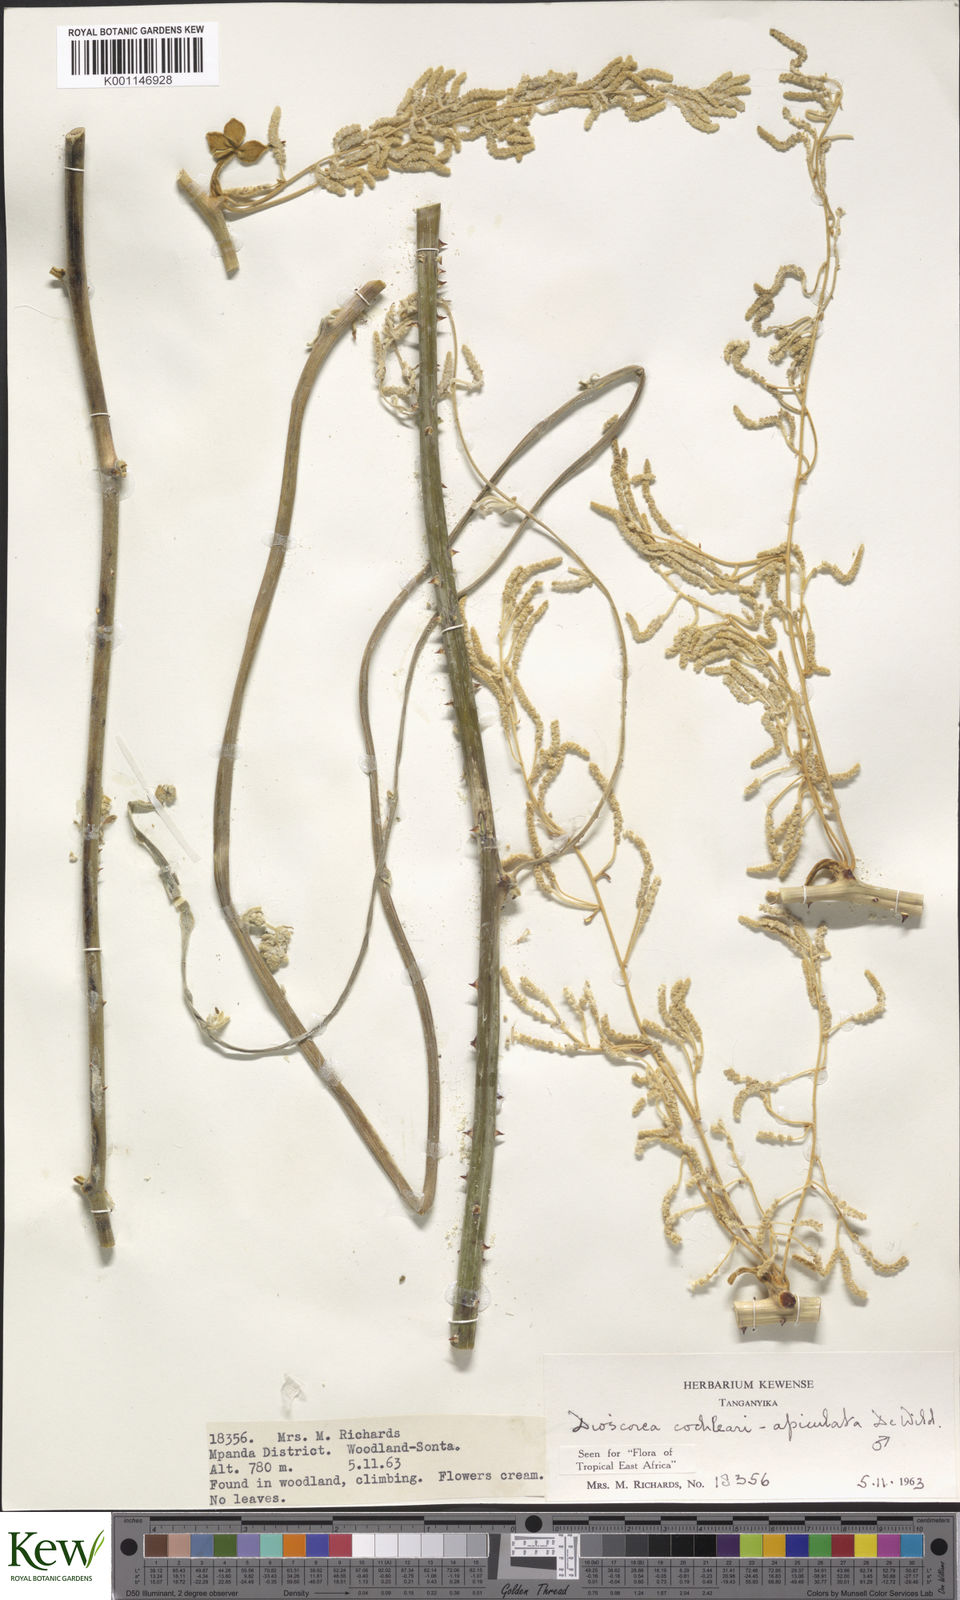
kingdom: Plantae
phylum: Tracheophyta
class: Liliopsida
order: Dioscoreales
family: Dioscoreaceae
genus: Dioscorea
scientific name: Dioscorea cochleariapiculata
